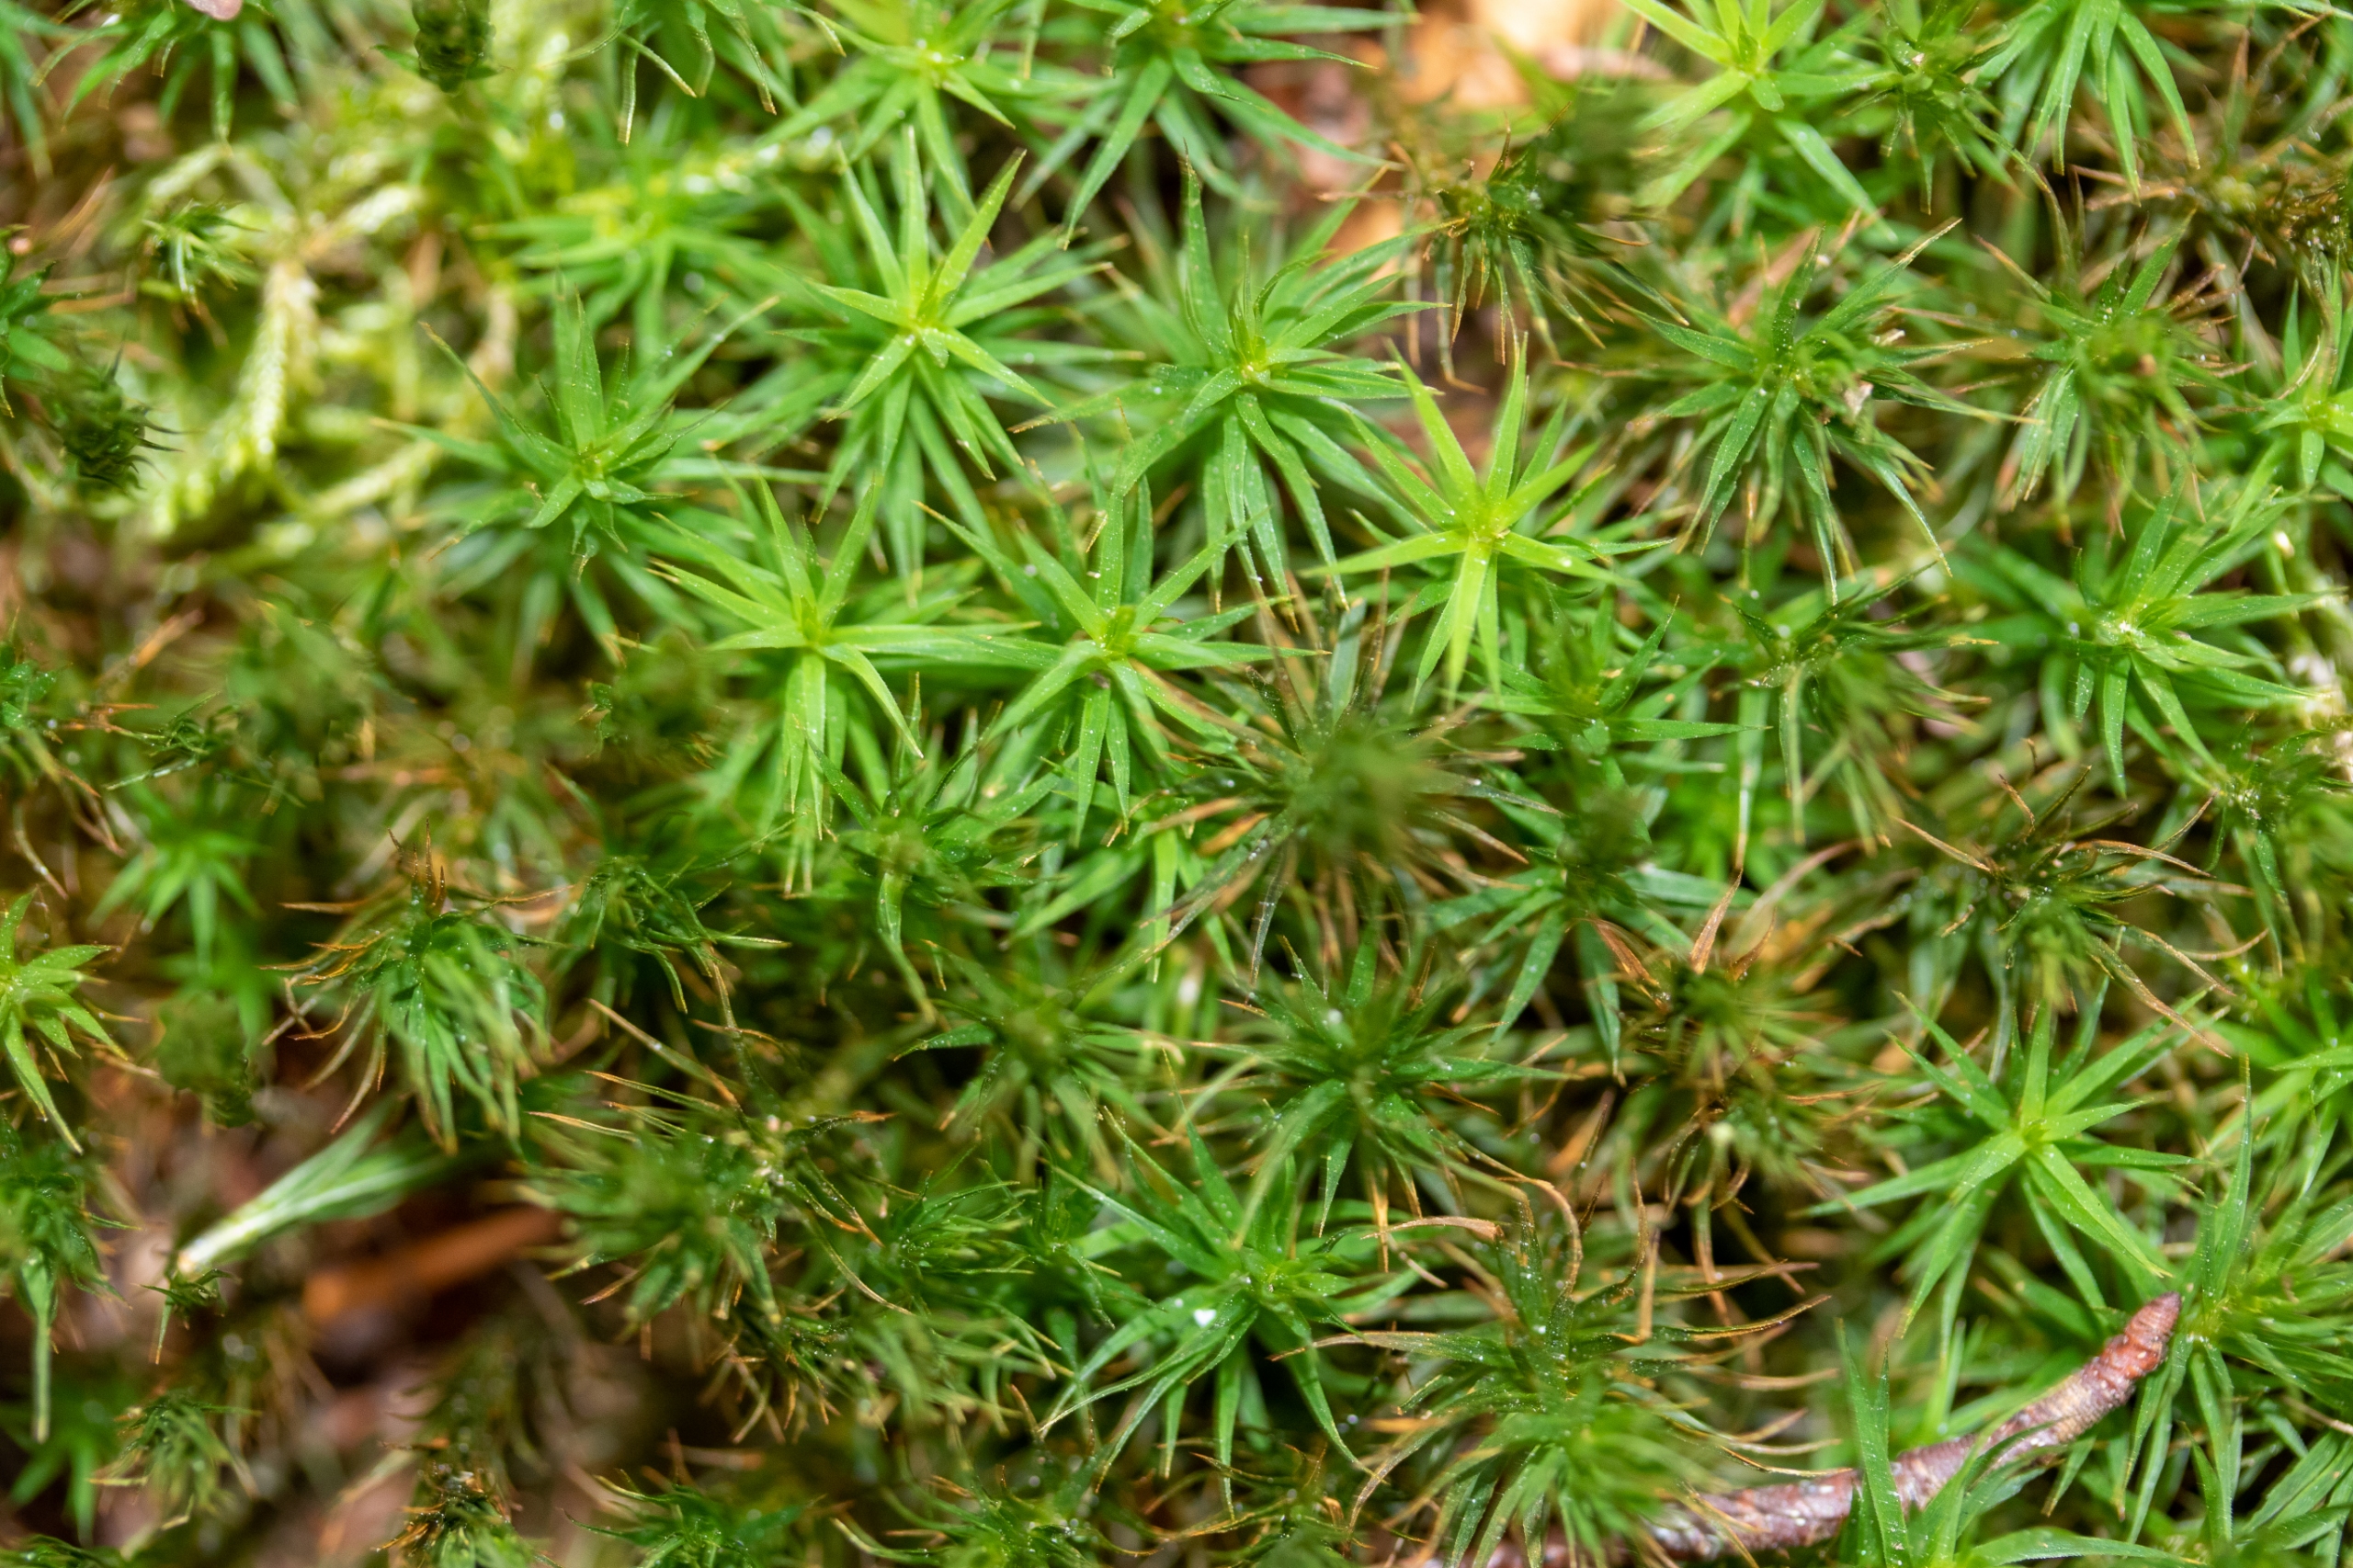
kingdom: Plantae
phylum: Bryophyta
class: Polytrichopsida
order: Polytrichales
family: Polytrichaceae
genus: Polytrichum
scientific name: Polytrichum formosum
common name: Skov-jomfruhår
